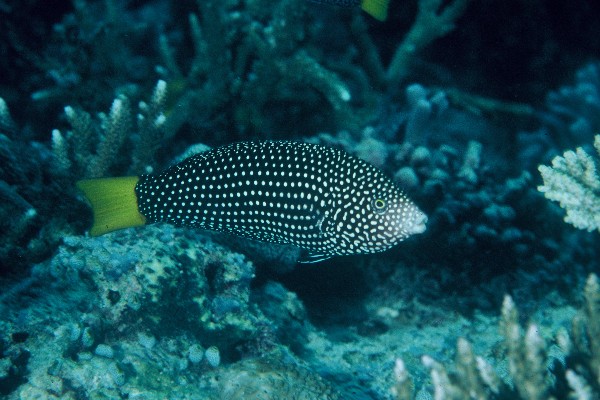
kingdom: Animalia
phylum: Chordata
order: Perciformes
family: Labridae
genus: Anampses
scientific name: Anampses meleagrides
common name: Yellowtail wrasse
